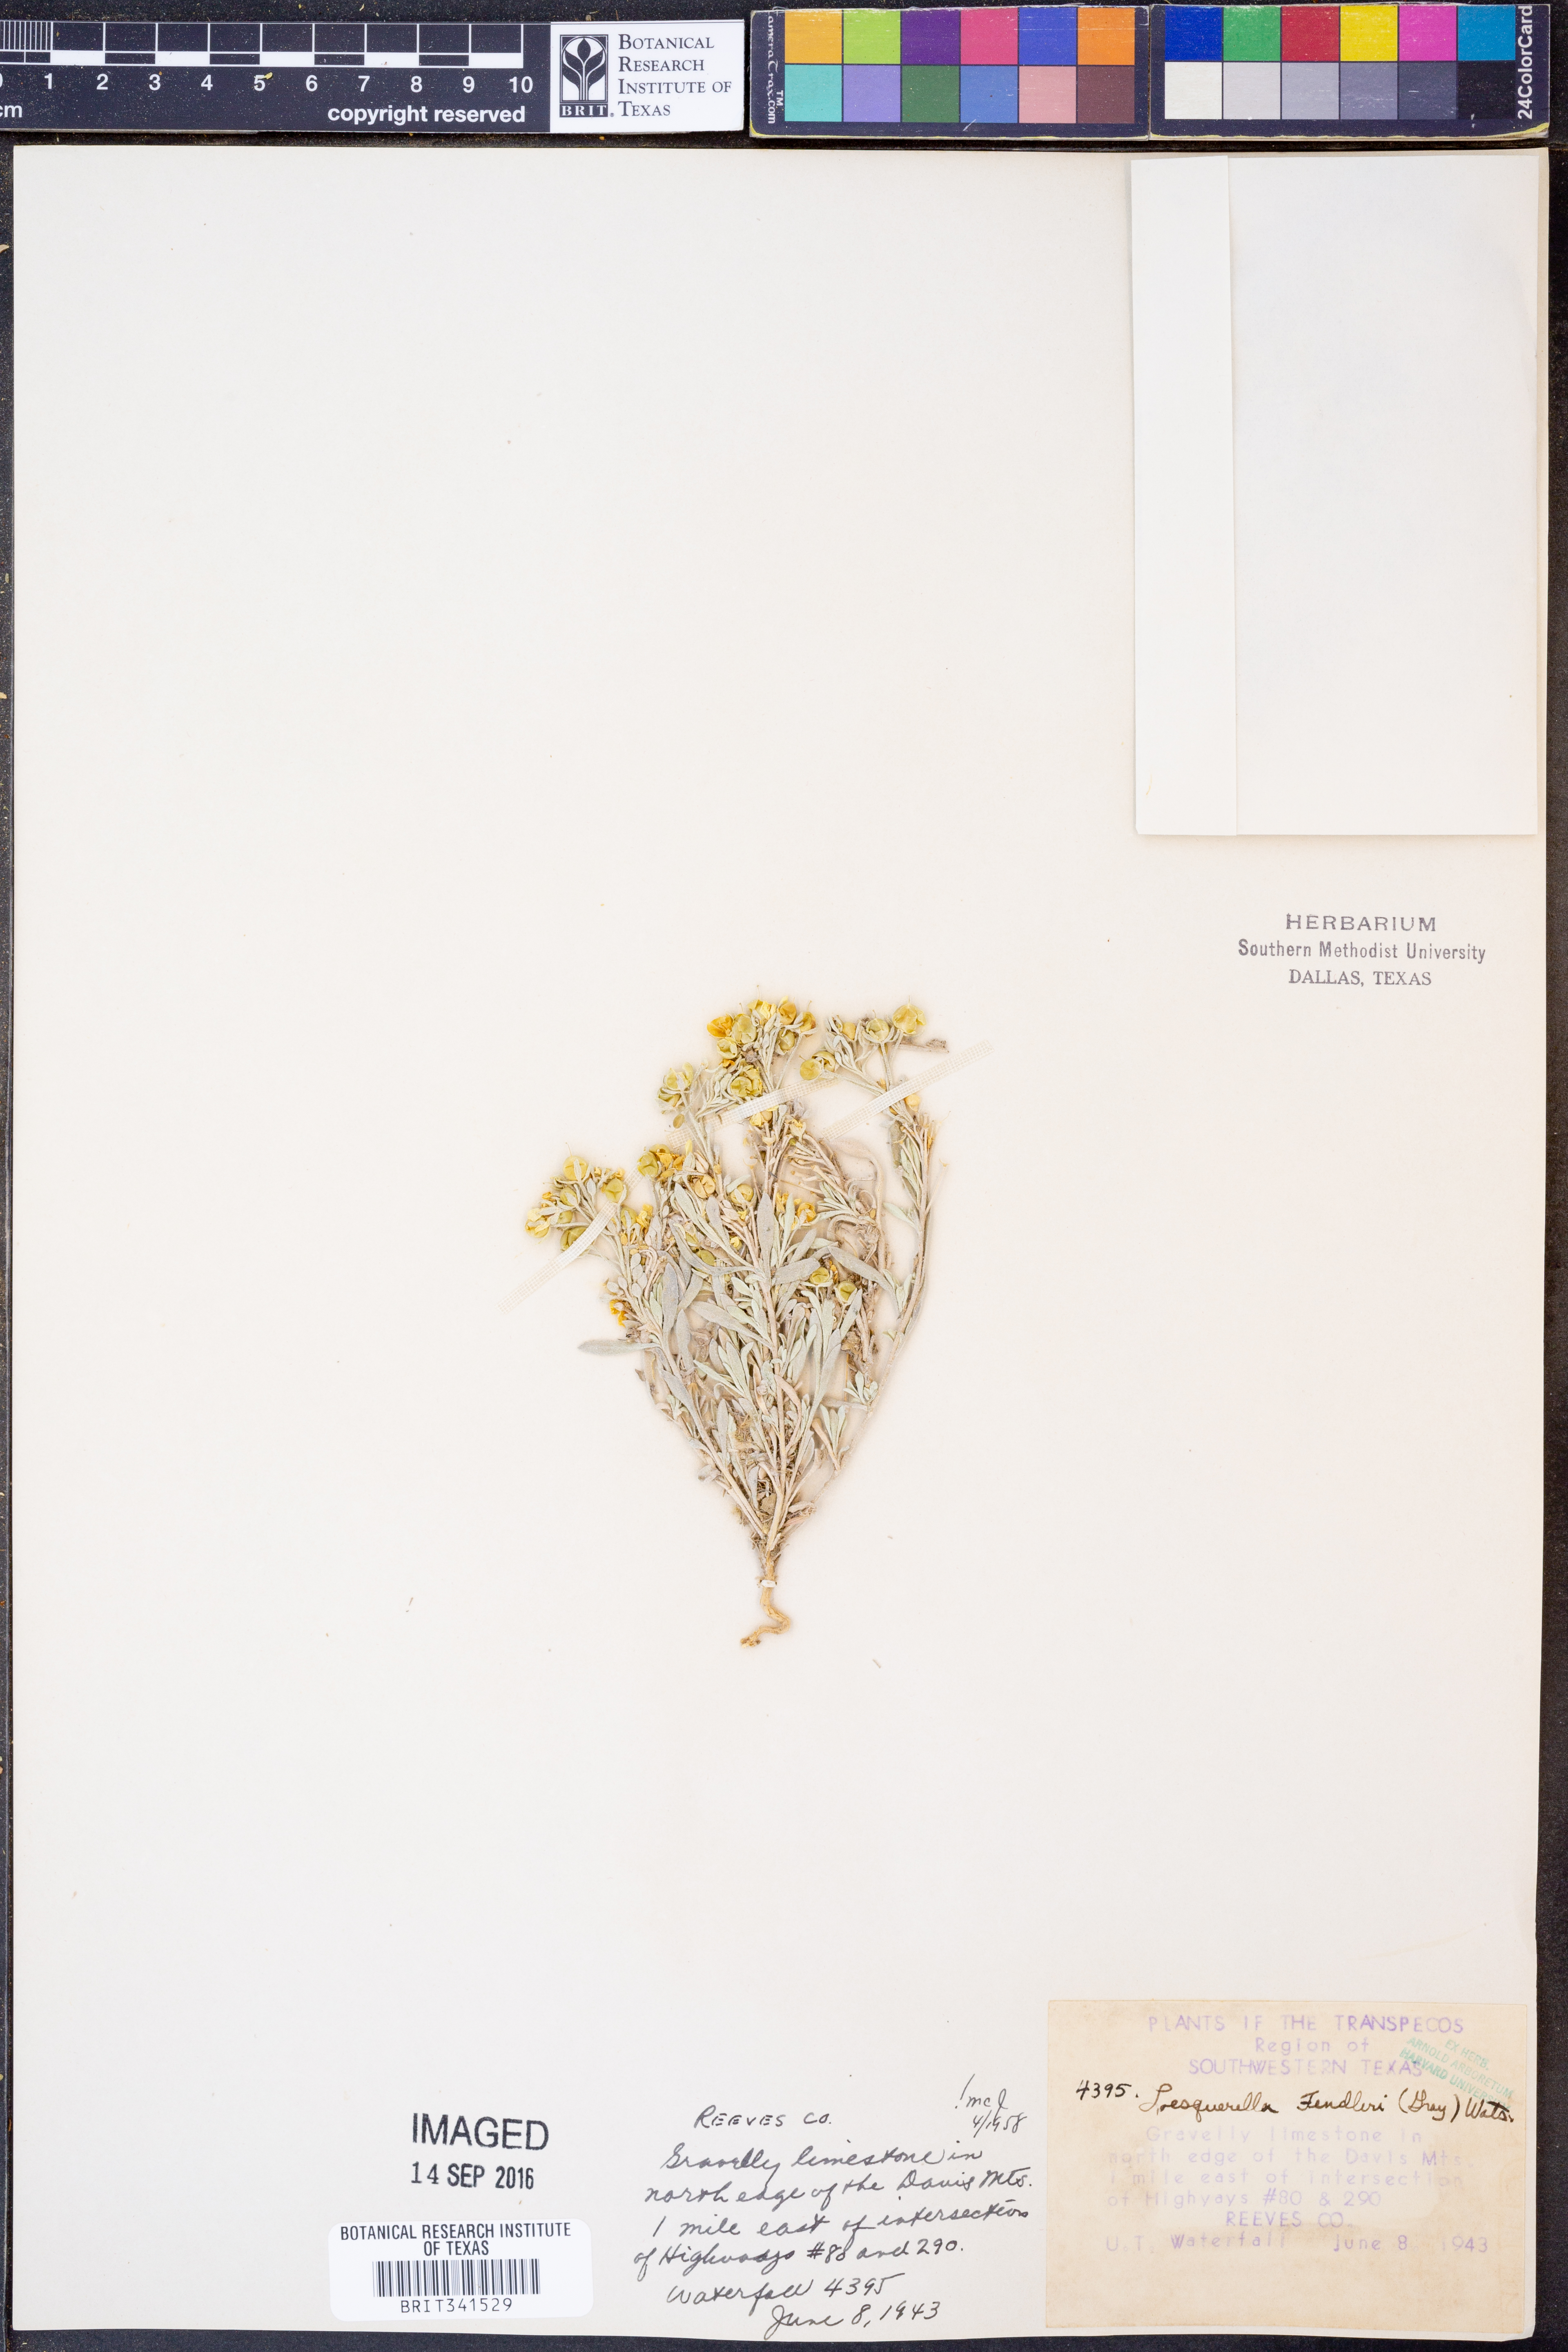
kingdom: Plantae
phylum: Tracheophyta
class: Magnoliopsida
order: Brassicales
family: Brassicaceae
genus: Physaria
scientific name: Physaria fendleri
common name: Fendler's bladderpod
